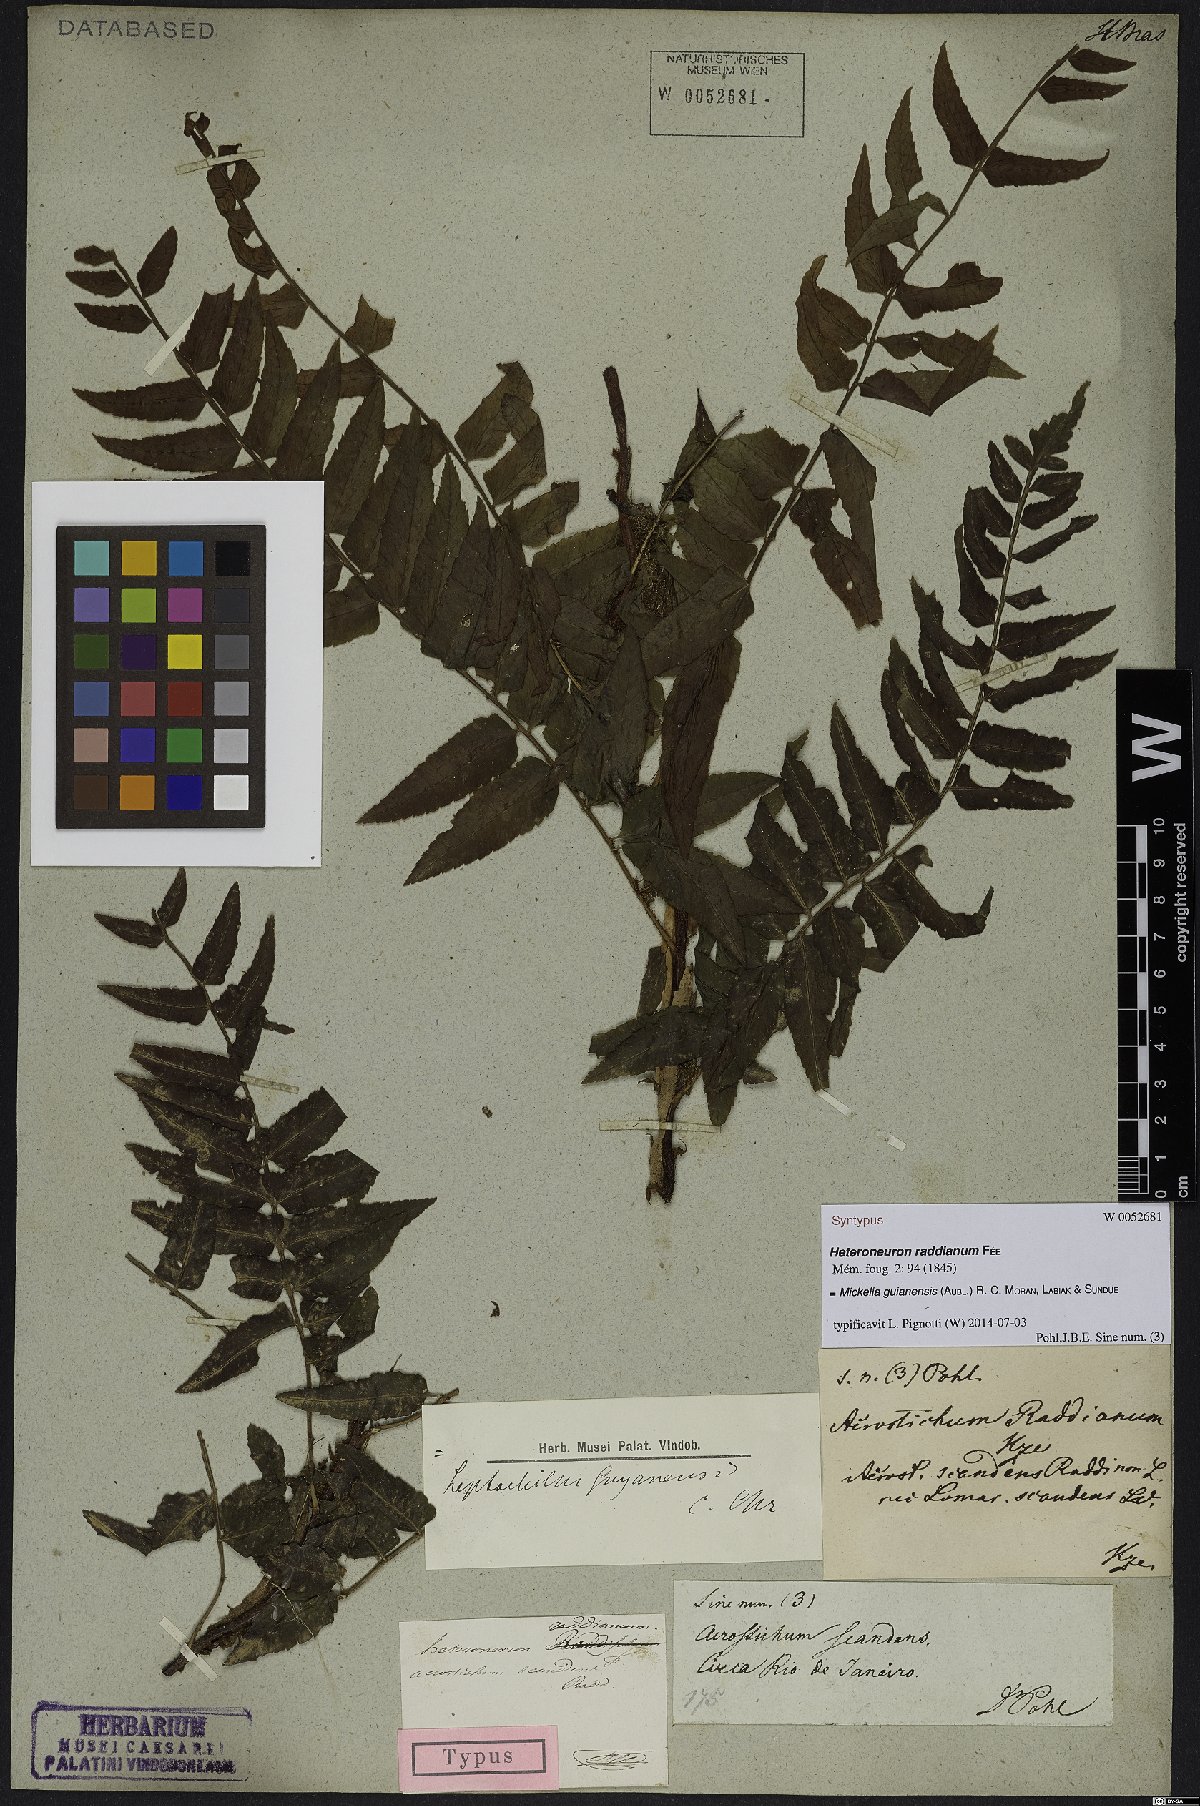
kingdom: Plantae
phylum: Tracheophyta
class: Polypodiopsida
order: Polypodiales
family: Dryopteridaceae
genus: Mickelia
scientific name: Mickelia guianensis
